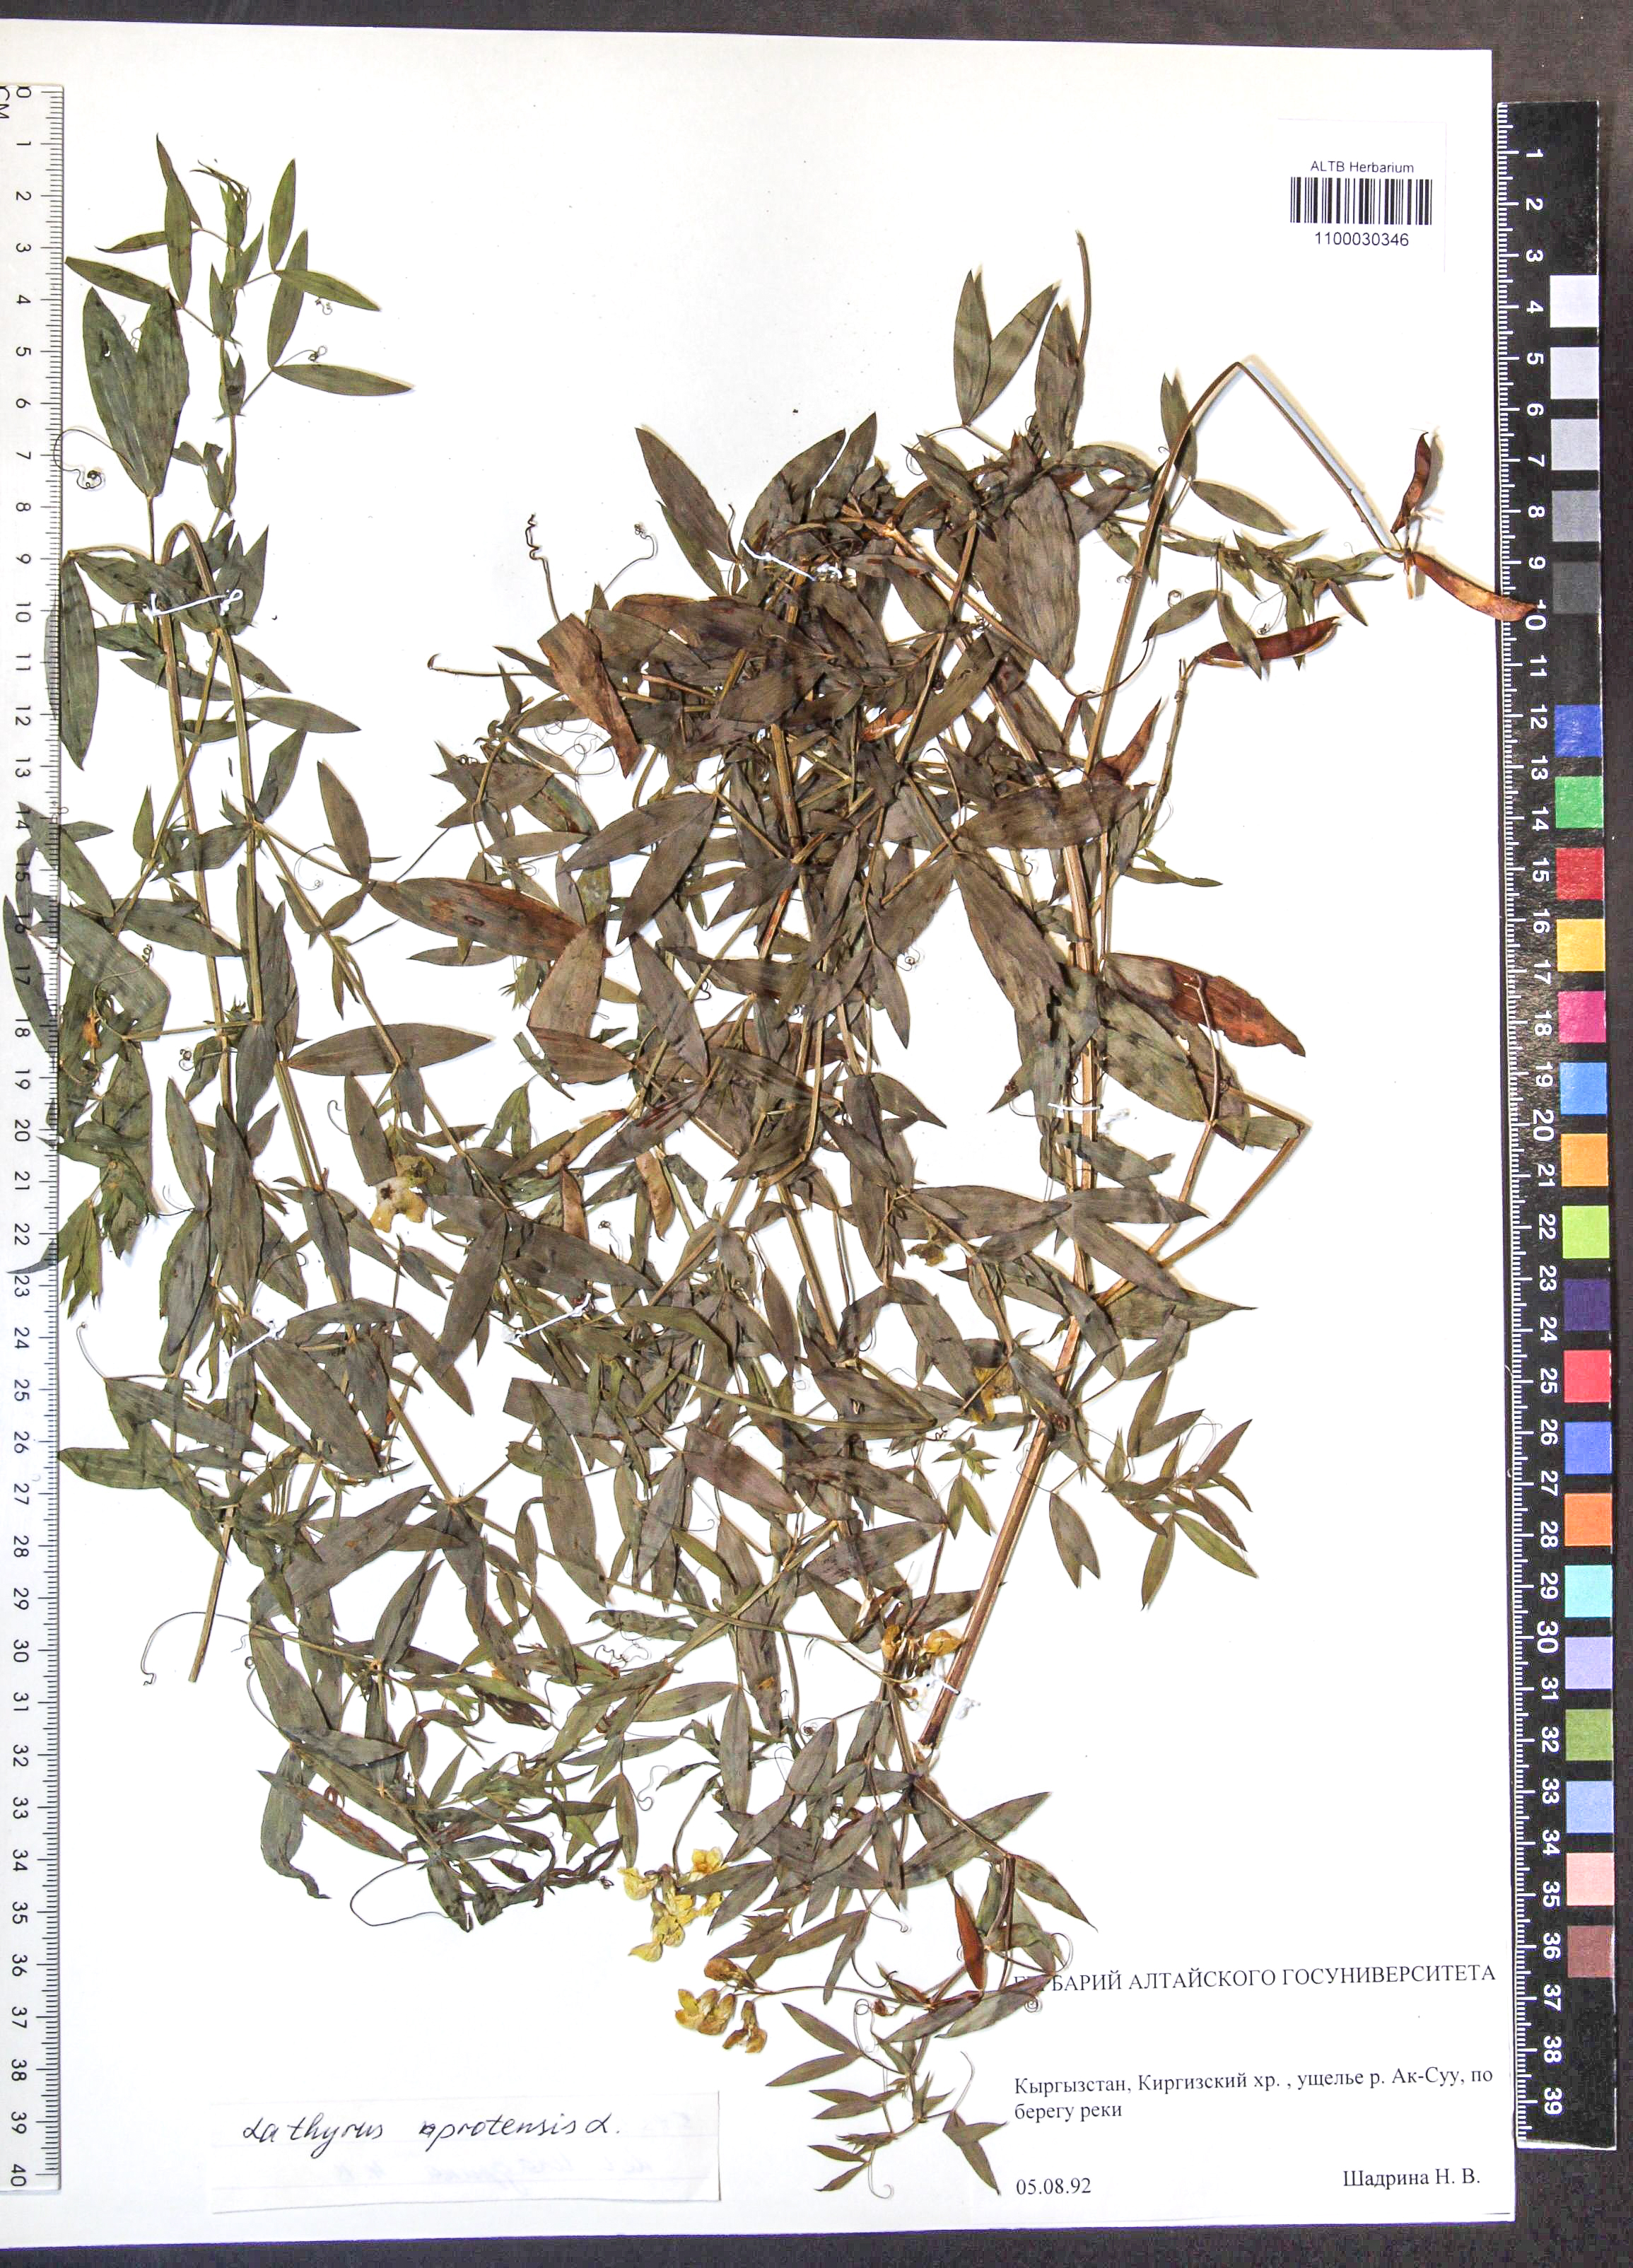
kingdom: Plantae
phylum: Tracheophyta
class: Magnoliopsida
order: Fabales
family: Fabaceae
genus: Lathyrus
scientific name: Lathyrus pratensis
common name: Meadow vetchling
